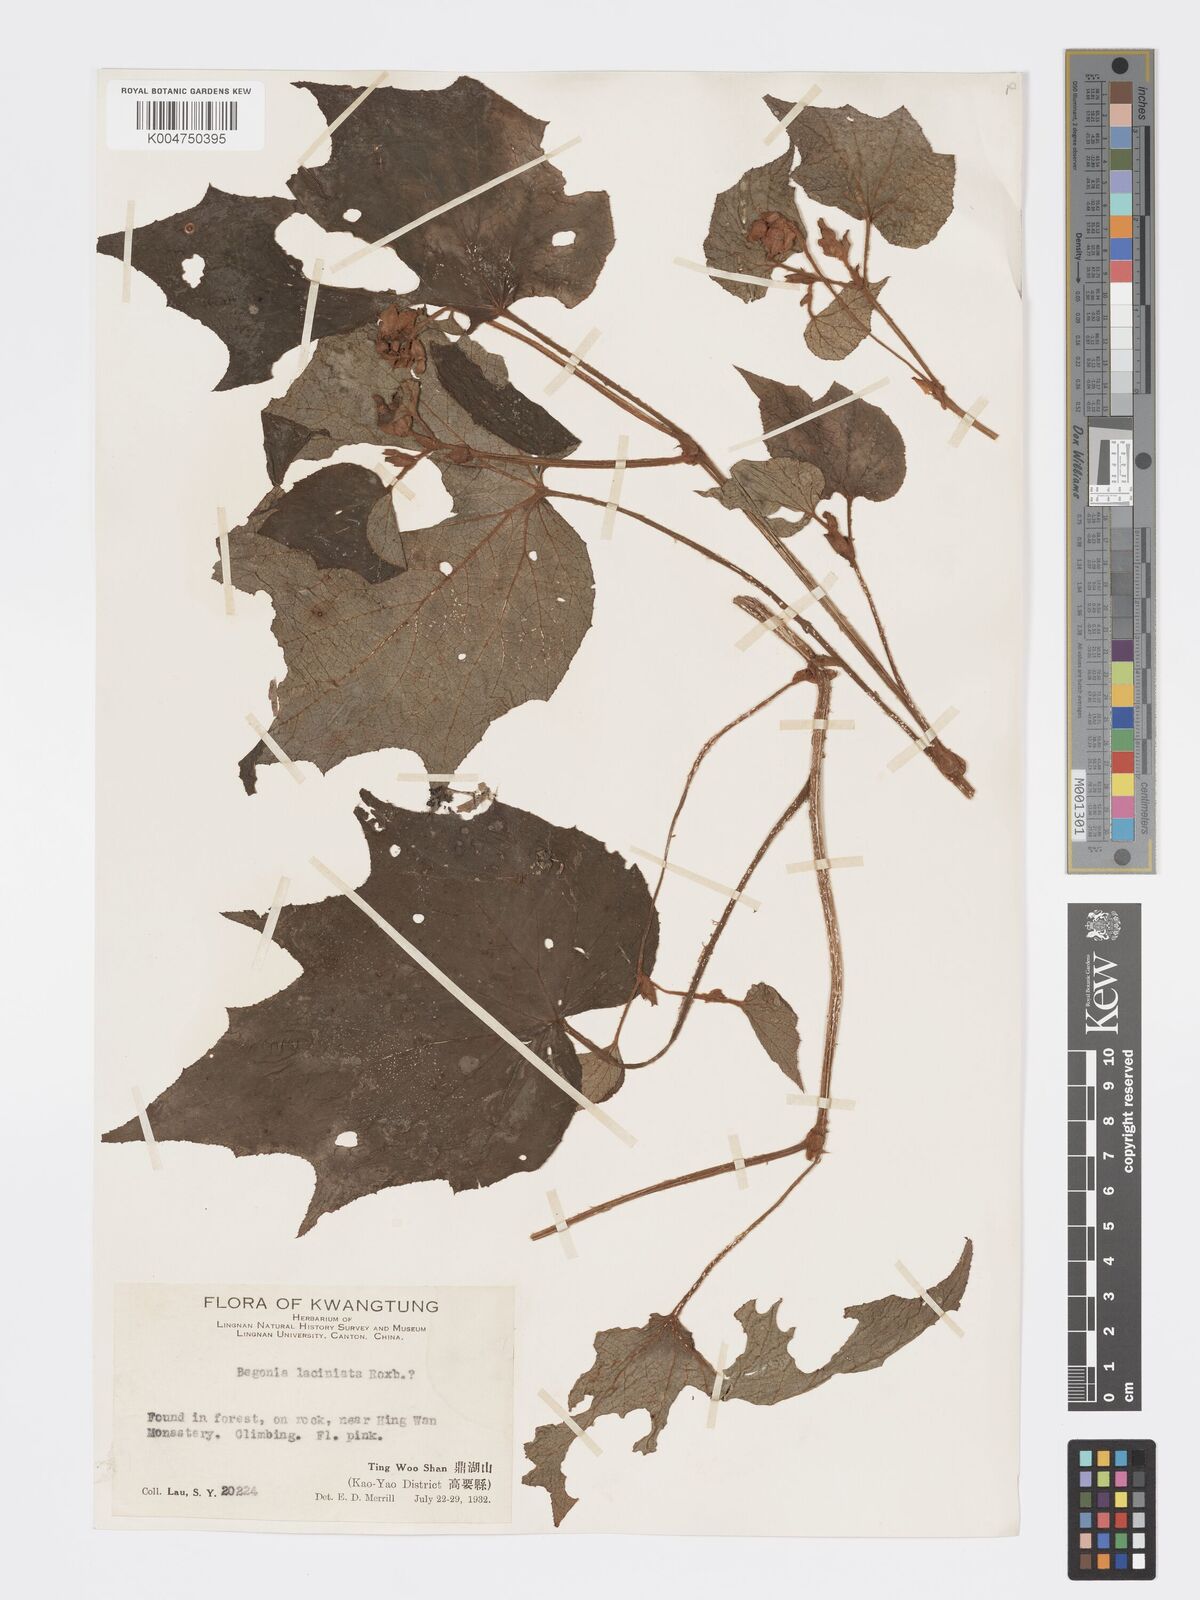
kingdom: Plantae
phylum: Tracheophyta
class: Magnoliopsida
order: Cucurbitales
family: Begoniaceae
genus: Begonia
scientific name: Begonia palmata
